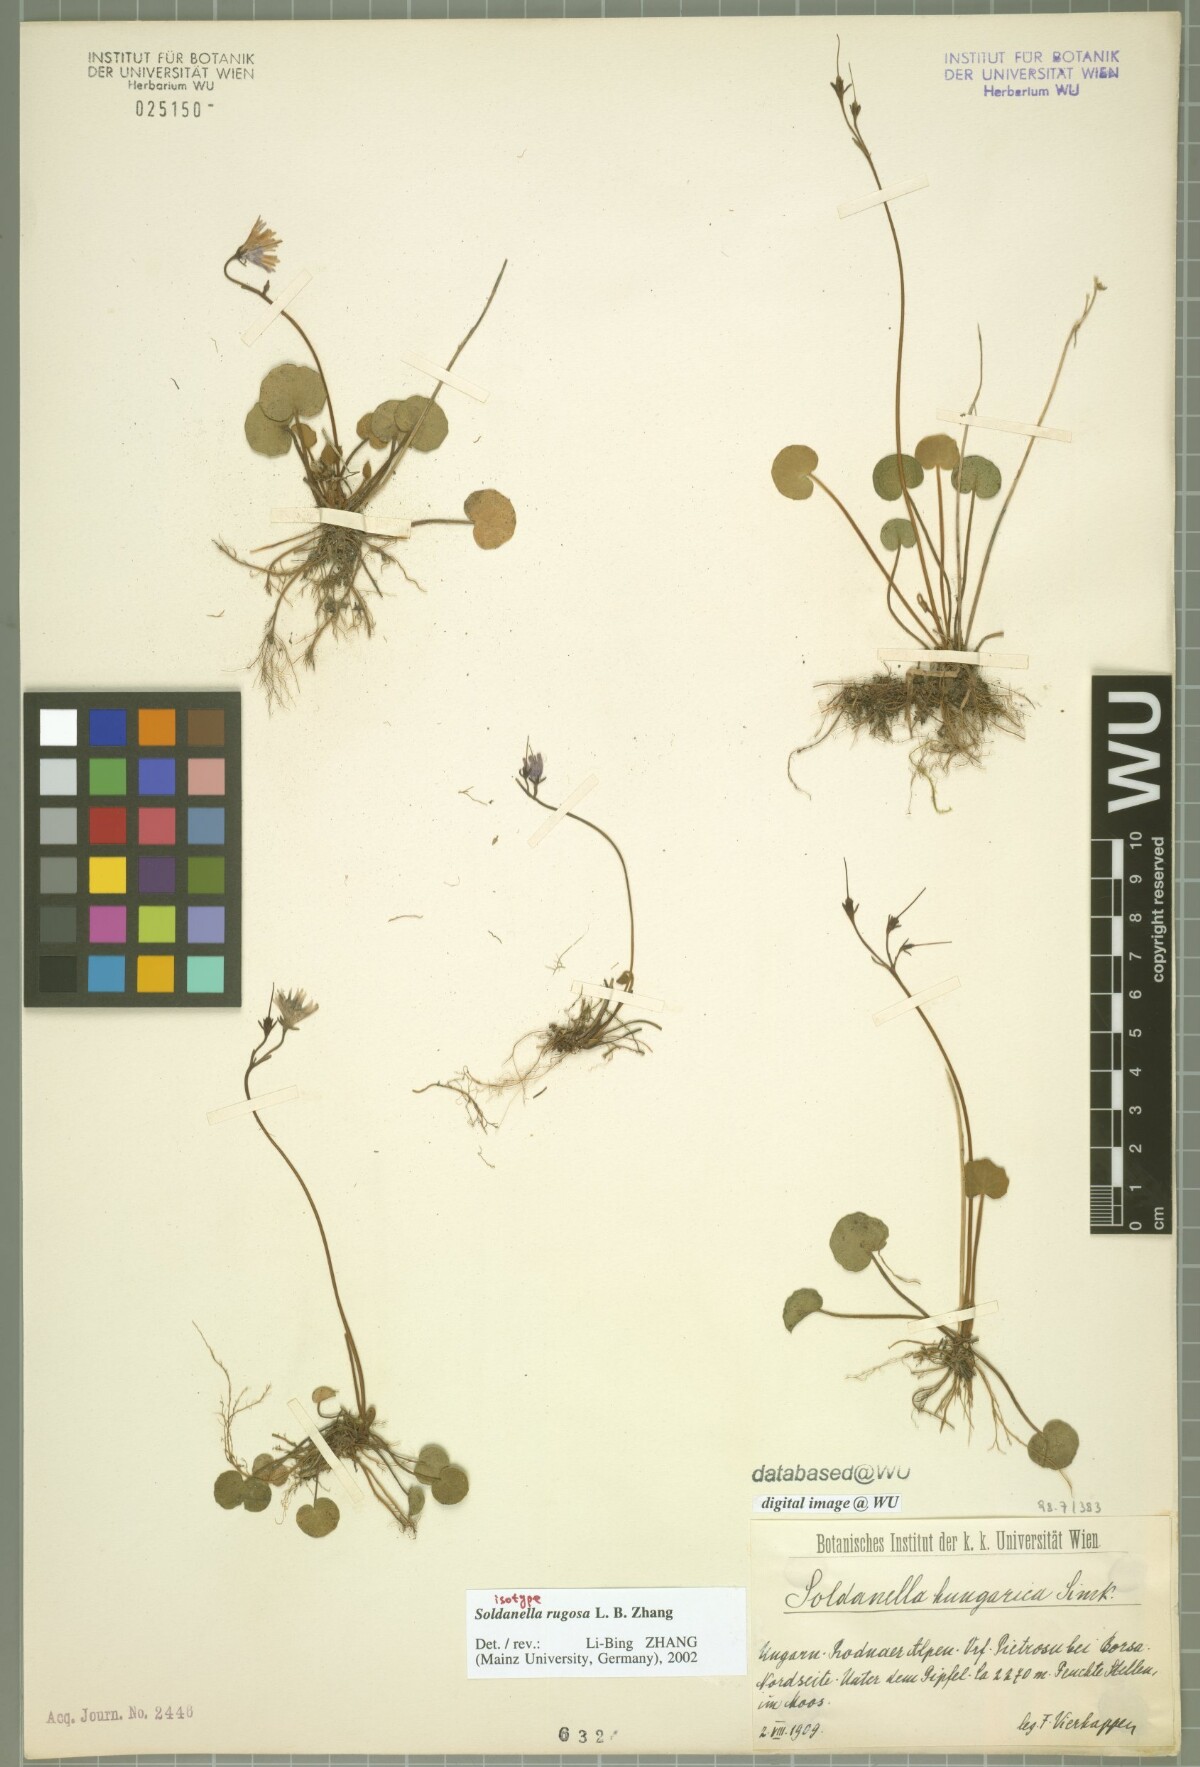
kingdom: Plantae
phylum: Tracheophyta
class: Magnoliopsida
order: Ericales
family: Primulaceae
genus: Soldanella
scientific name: Soldanella rugosa
